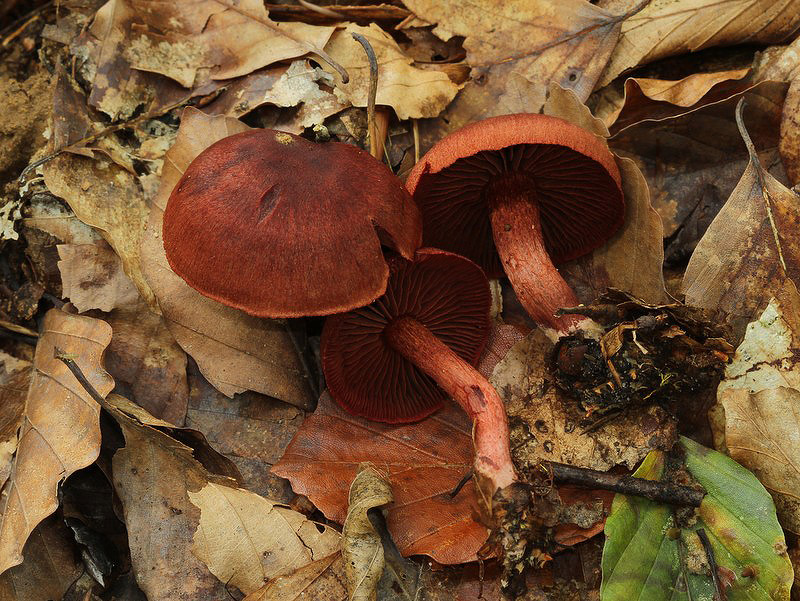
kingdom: Fungi
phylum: Basidiomycota
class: Agaricomycetes
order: Agaricales
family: Cortinariaceae
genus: Cortinarius
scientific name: Cortinarius sanguineus
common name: Bloodred webcap
